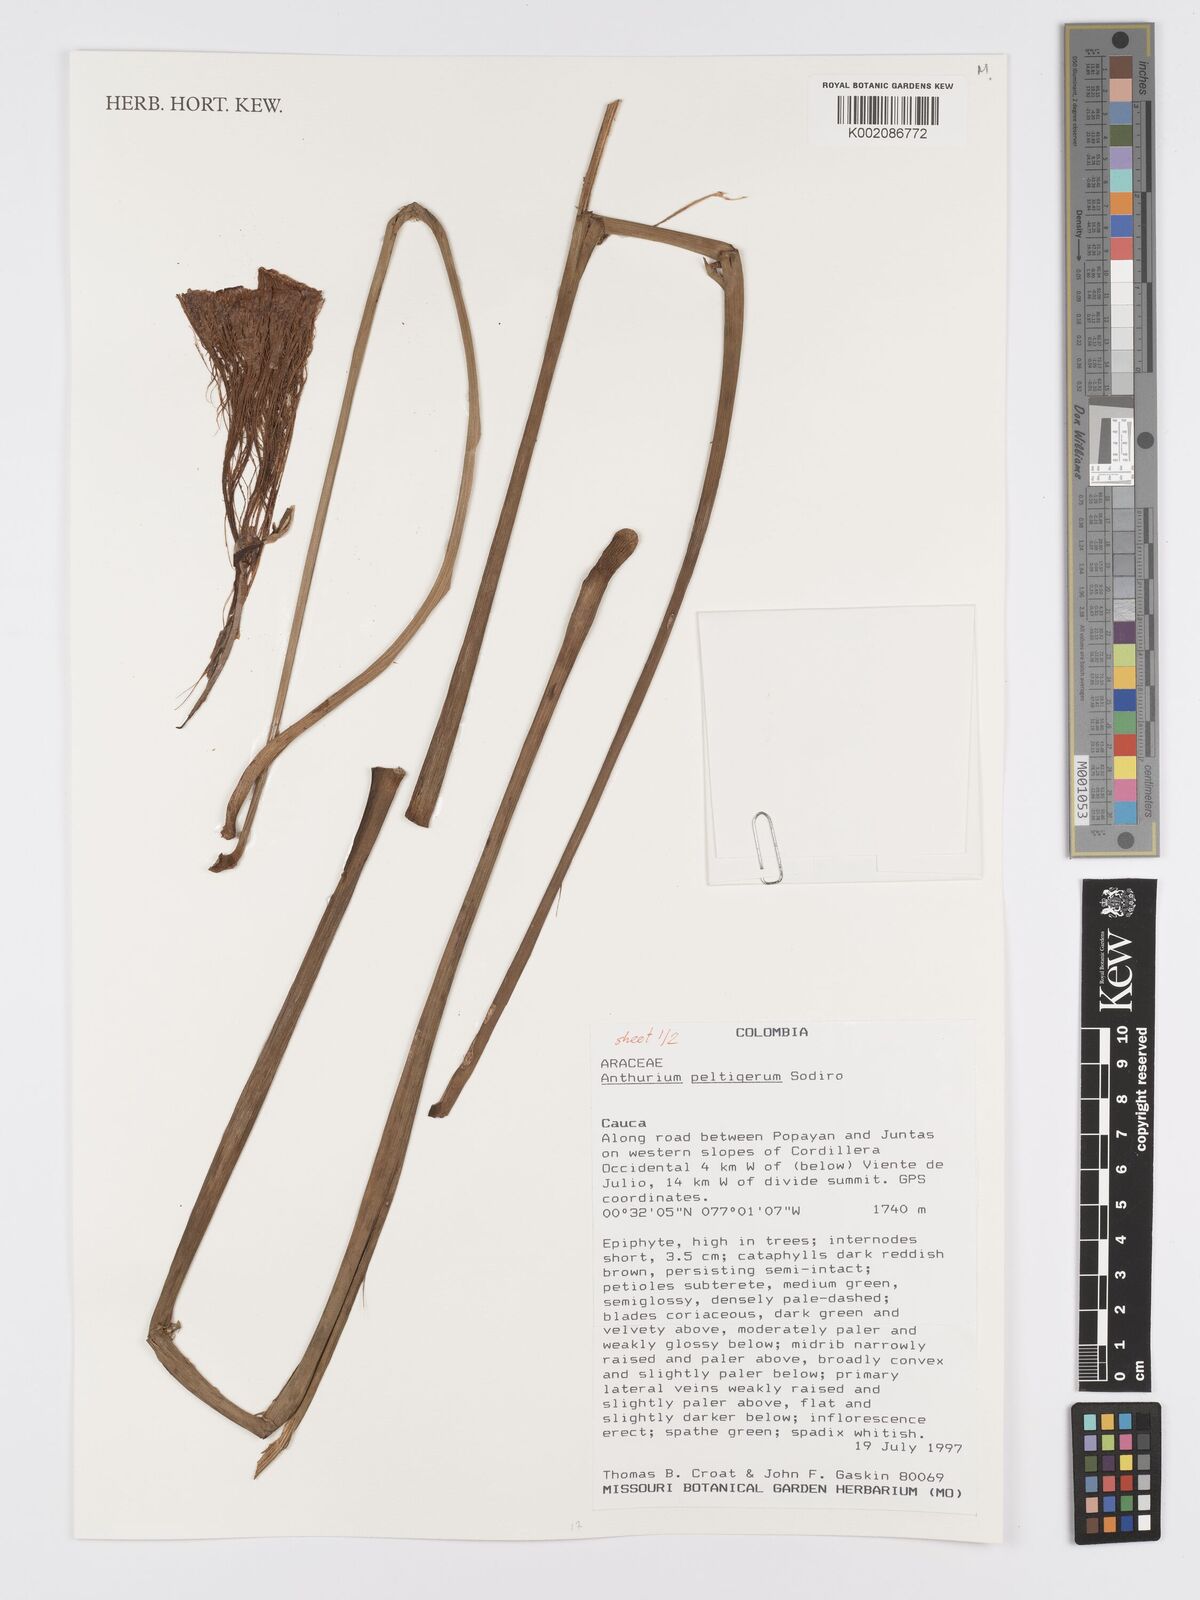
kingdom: Plantae
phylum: Tracheophyta
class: Liliopsida
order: Alismatales
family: Araceae
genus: Anthurium
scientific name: Anthurium peltigerum
